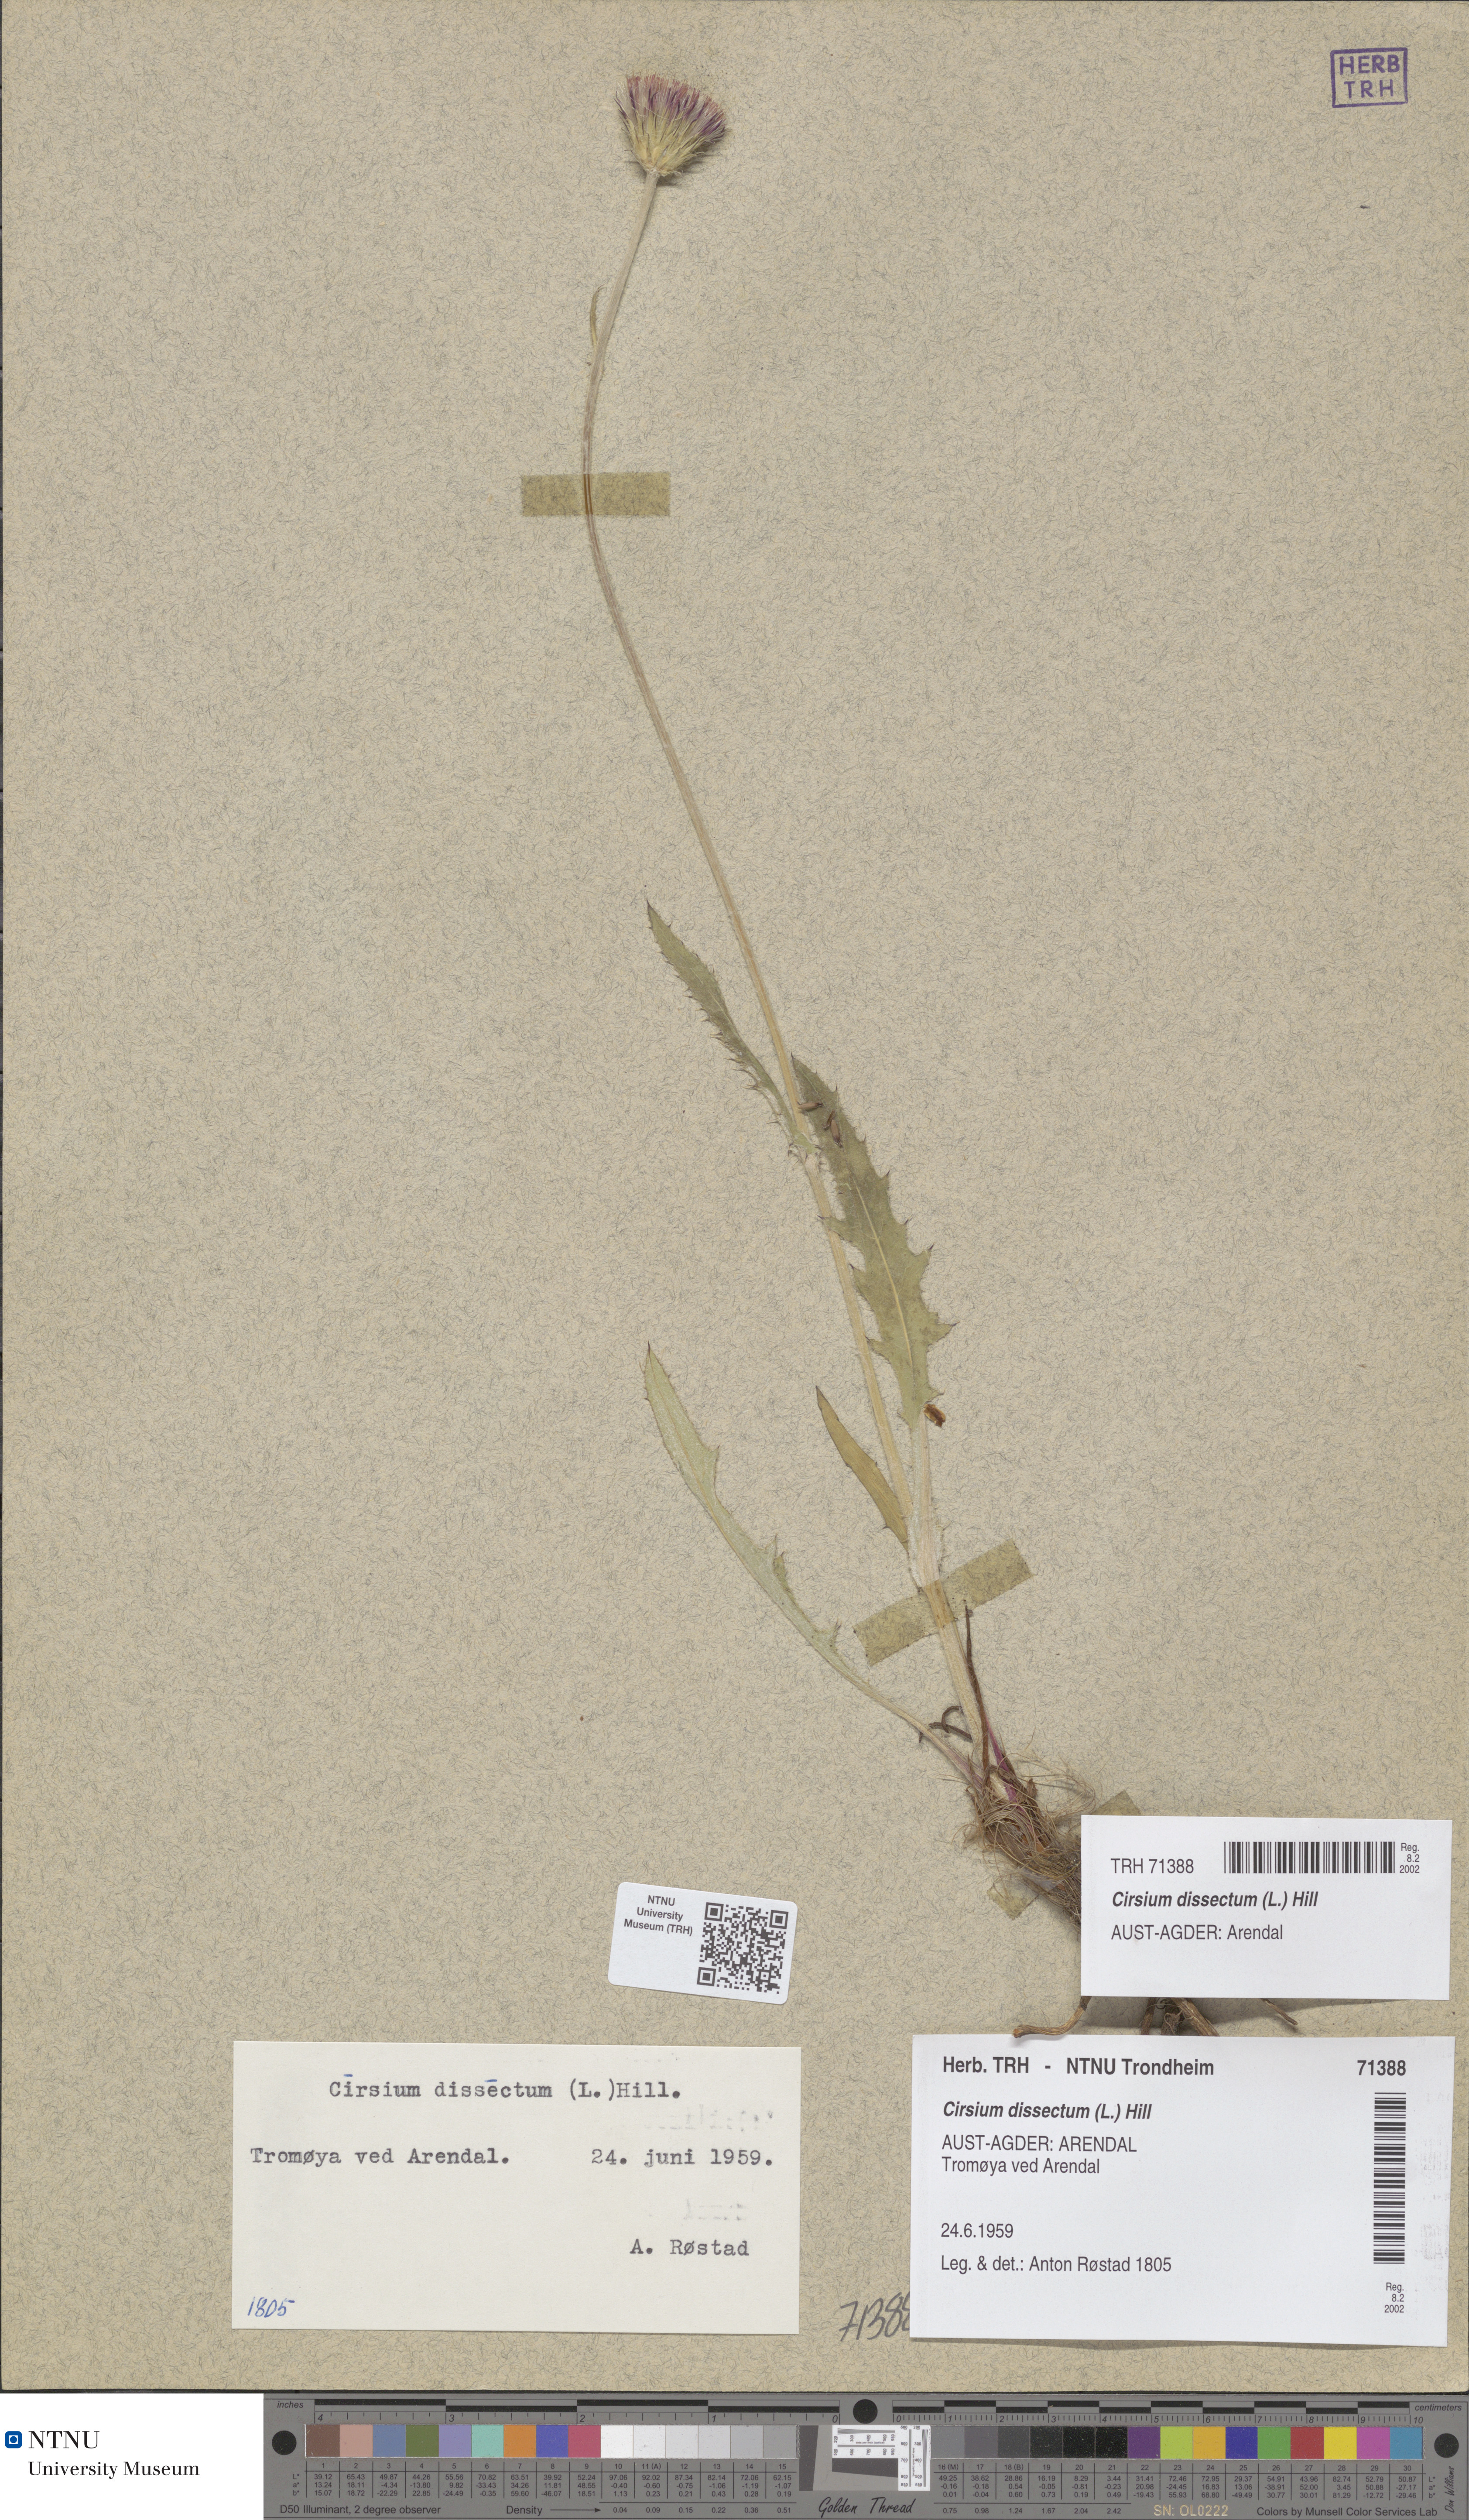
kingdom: Plantae
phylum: Tracheophyta
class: Magnoliopsida
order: Asterales
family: Asteraceae
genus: Cirsium
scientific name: Cirsium dissectum
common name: Meadow thistle
